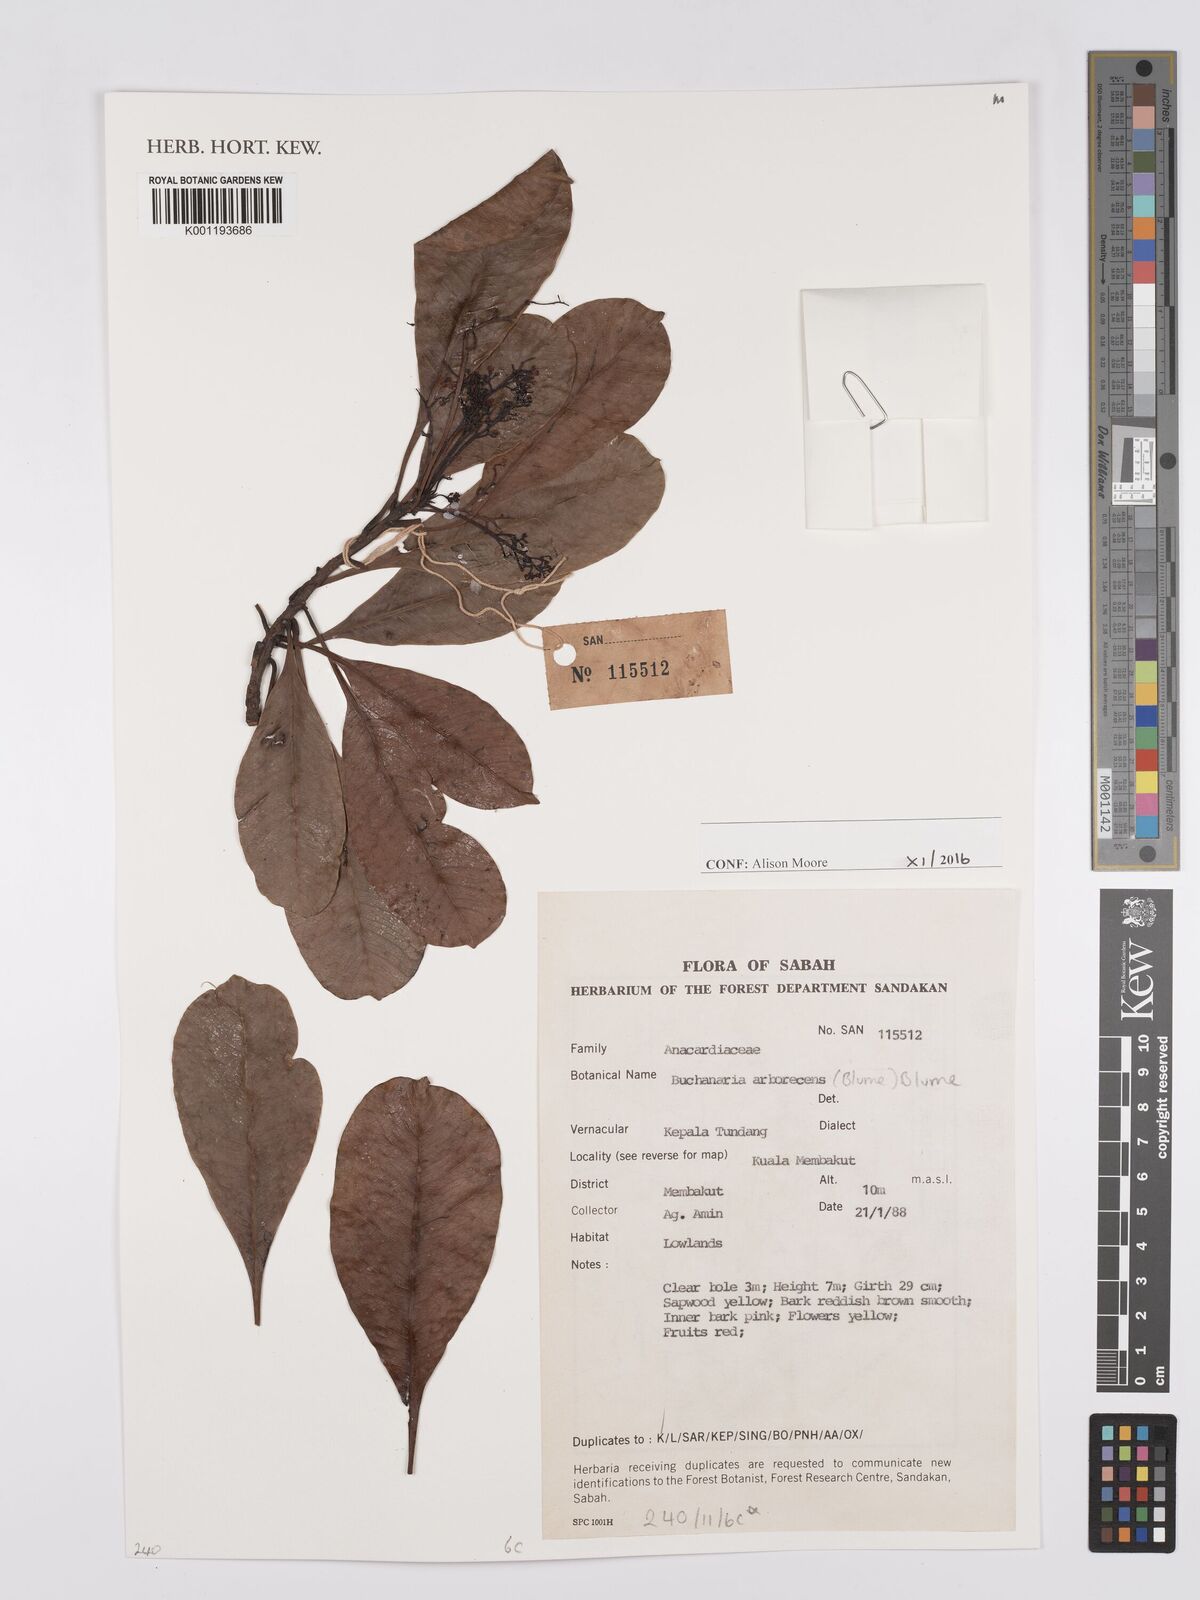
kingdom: Plantae
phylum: Tracheophyta
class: Magnoliopsida
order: Sapindales
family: Anacardiaceae
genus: Buchanania
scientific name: Buchanania arborescens
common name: Sparrow’s mango
